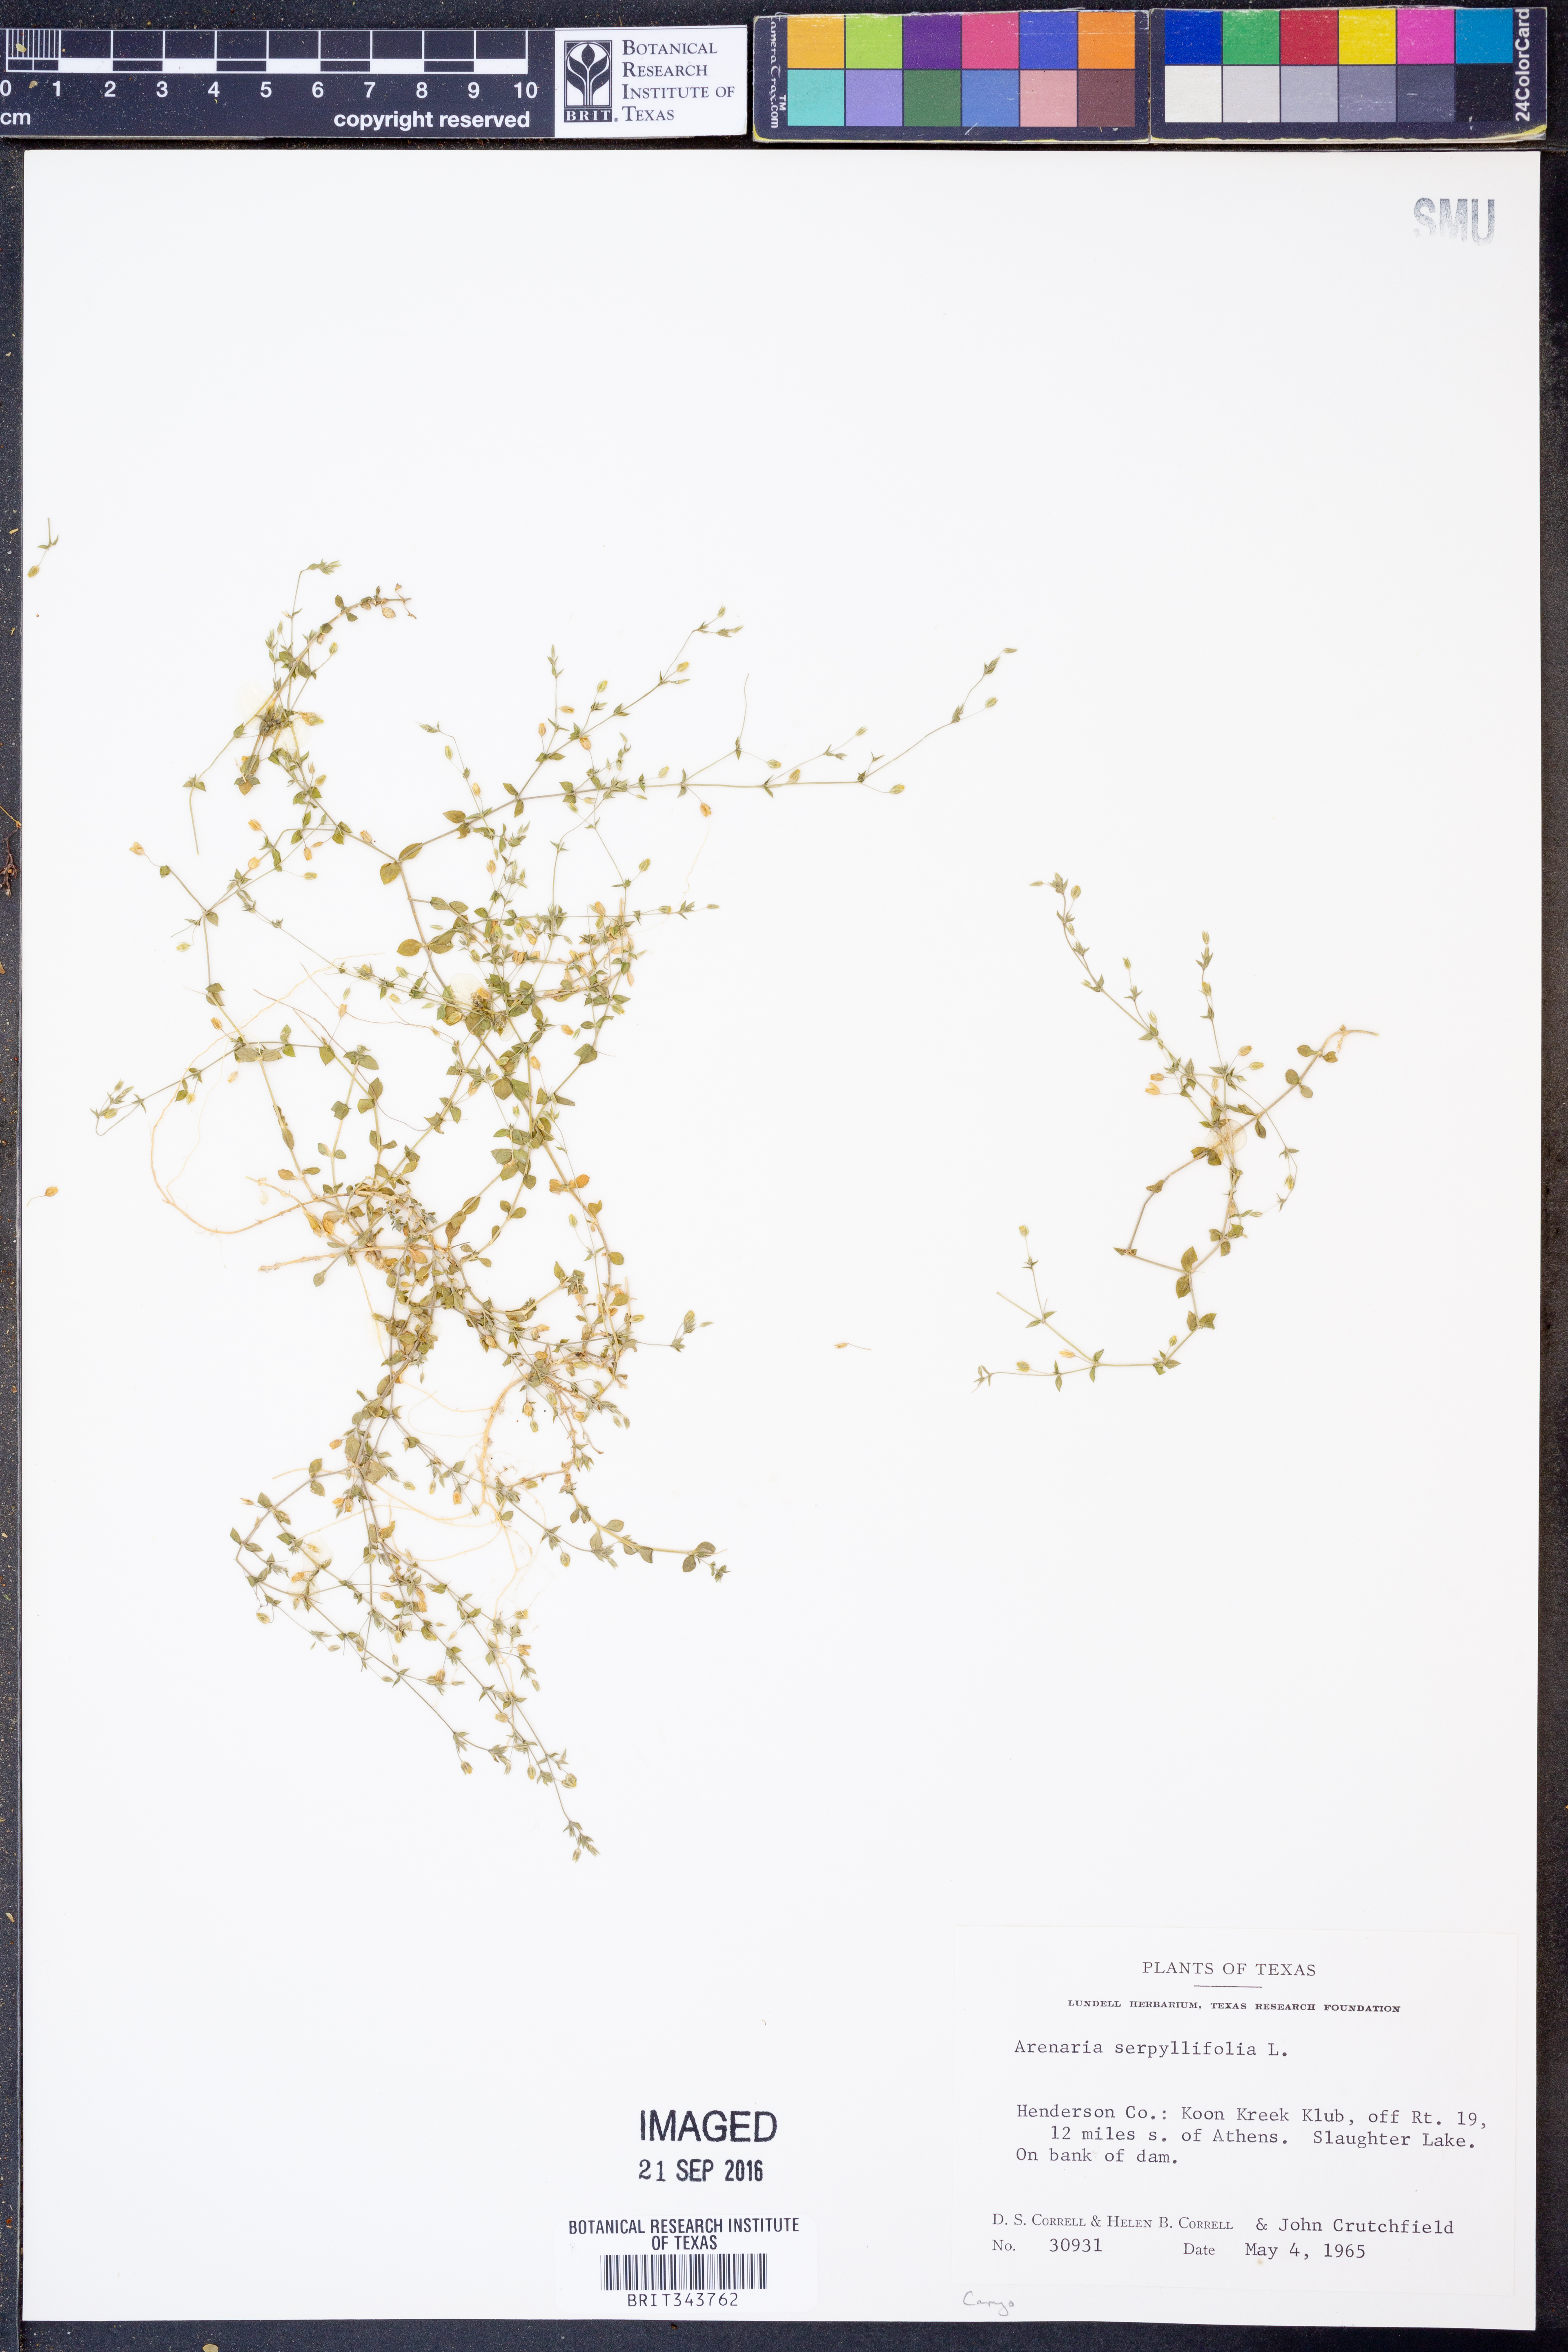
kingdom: Plantae
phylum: Tracheophyta
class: Magnoliopsida
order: Caryophyllales
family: Caryophyllaceae
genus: Arenaria
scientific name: Arenaria serpyllifolia
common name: Thyme-leaved sandwort
